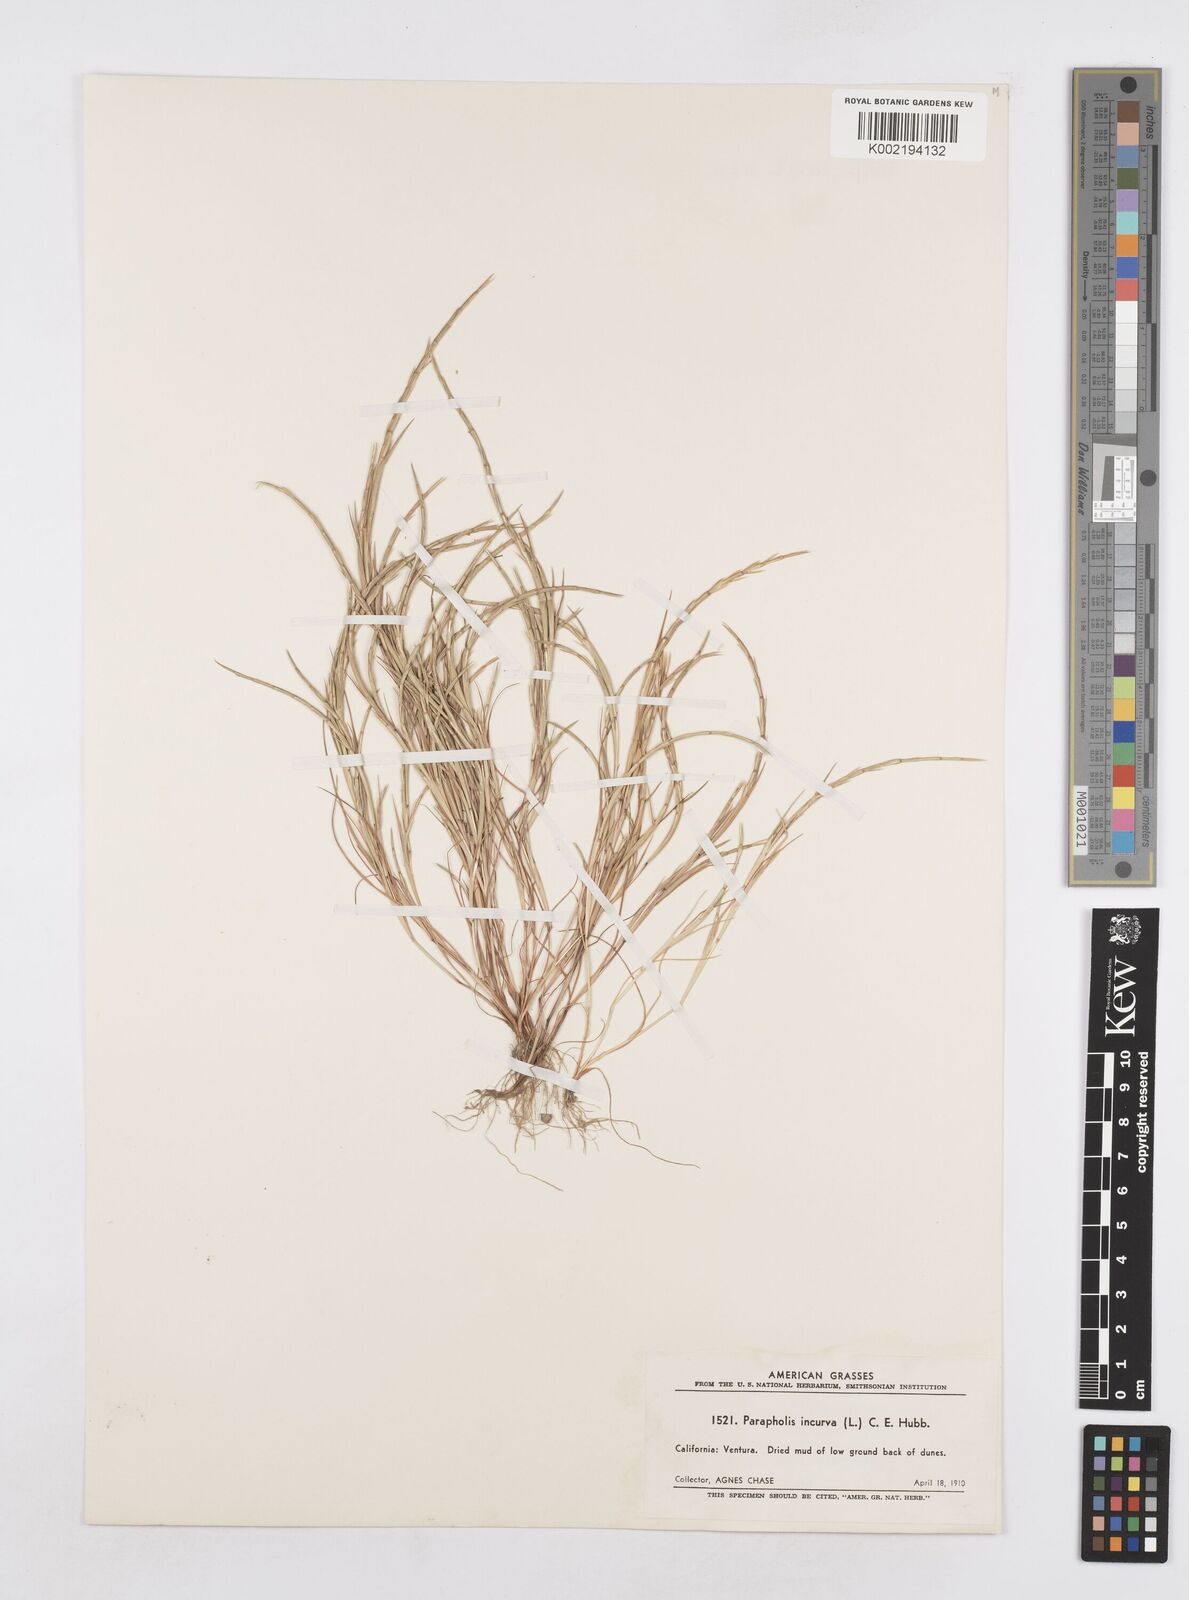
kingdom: Plantae
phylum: Tracheophyta
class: Liliopsida
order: Poales
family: Poaceae
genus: Parapholis
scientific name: Parapholis incurva
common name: Curved sicklegrass
